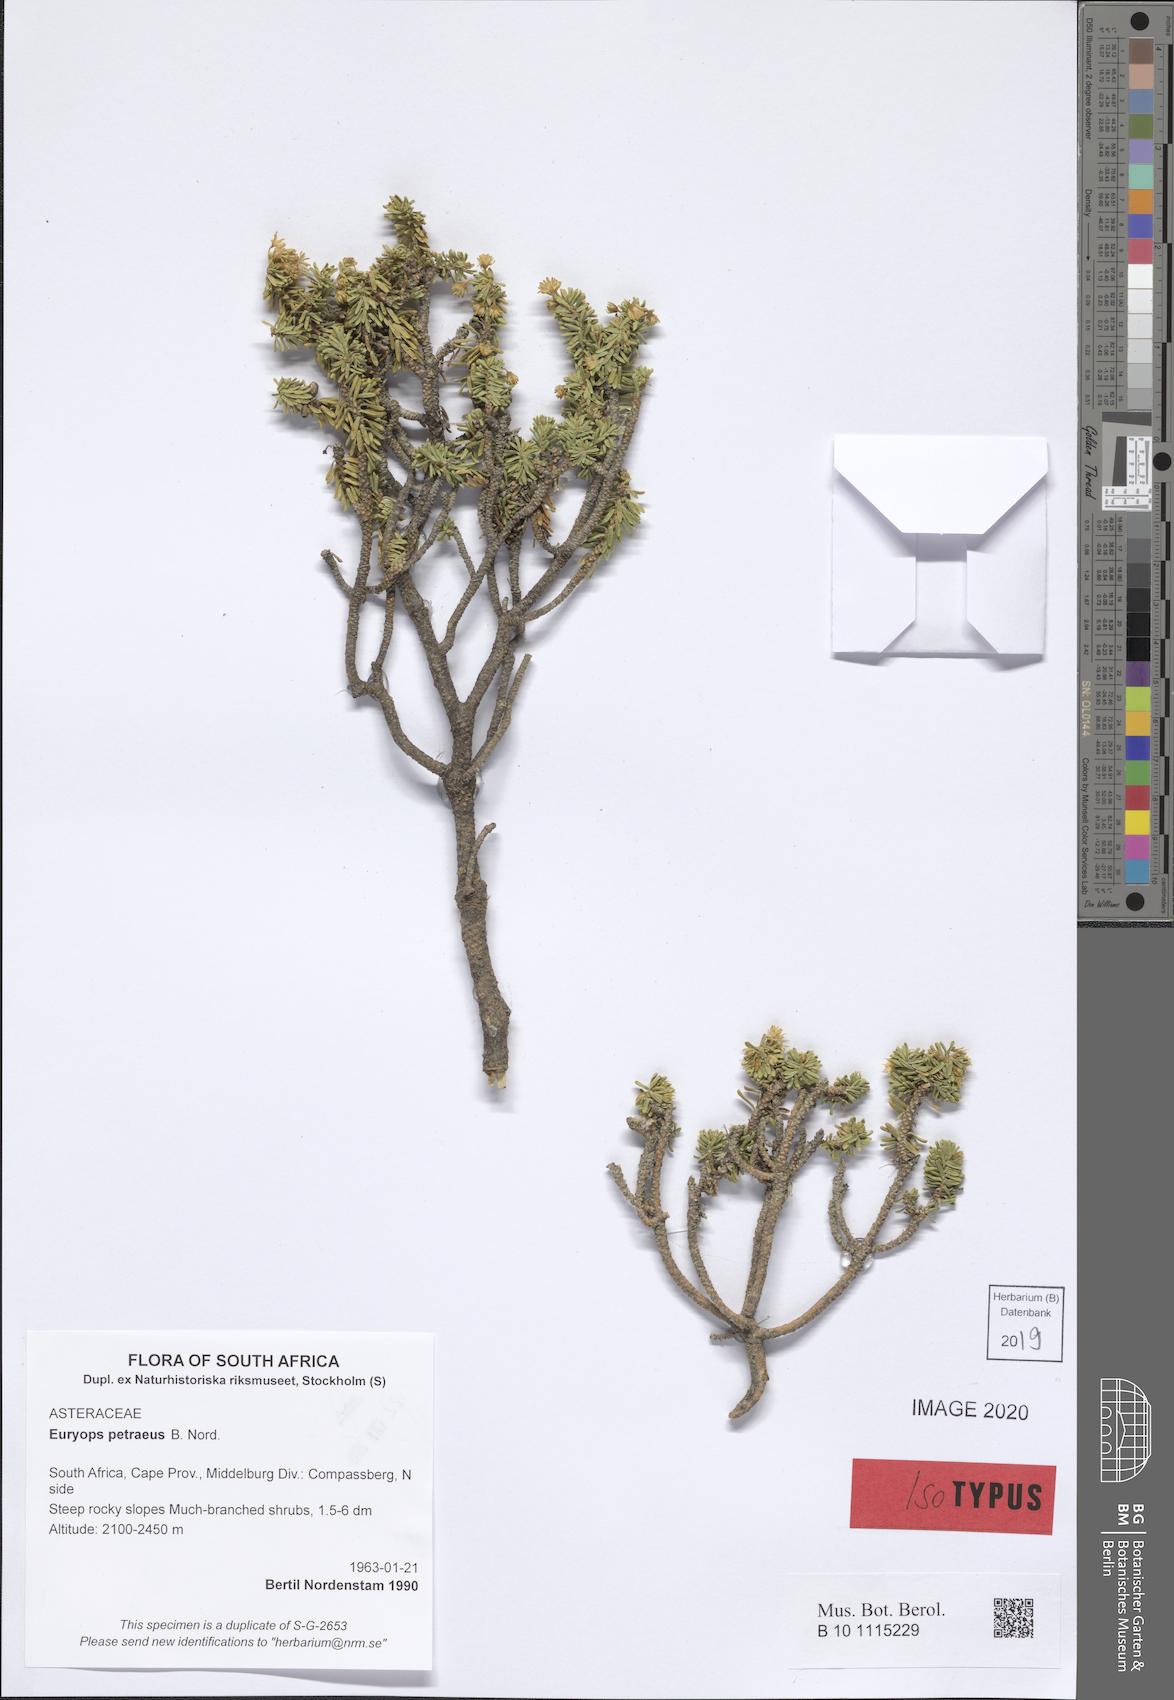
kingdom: Plantae
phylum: Tracheophyta
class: Magnoliopsida
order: Asterales
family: Asteraceae
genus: Euryops
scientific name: Euryops petraeus
